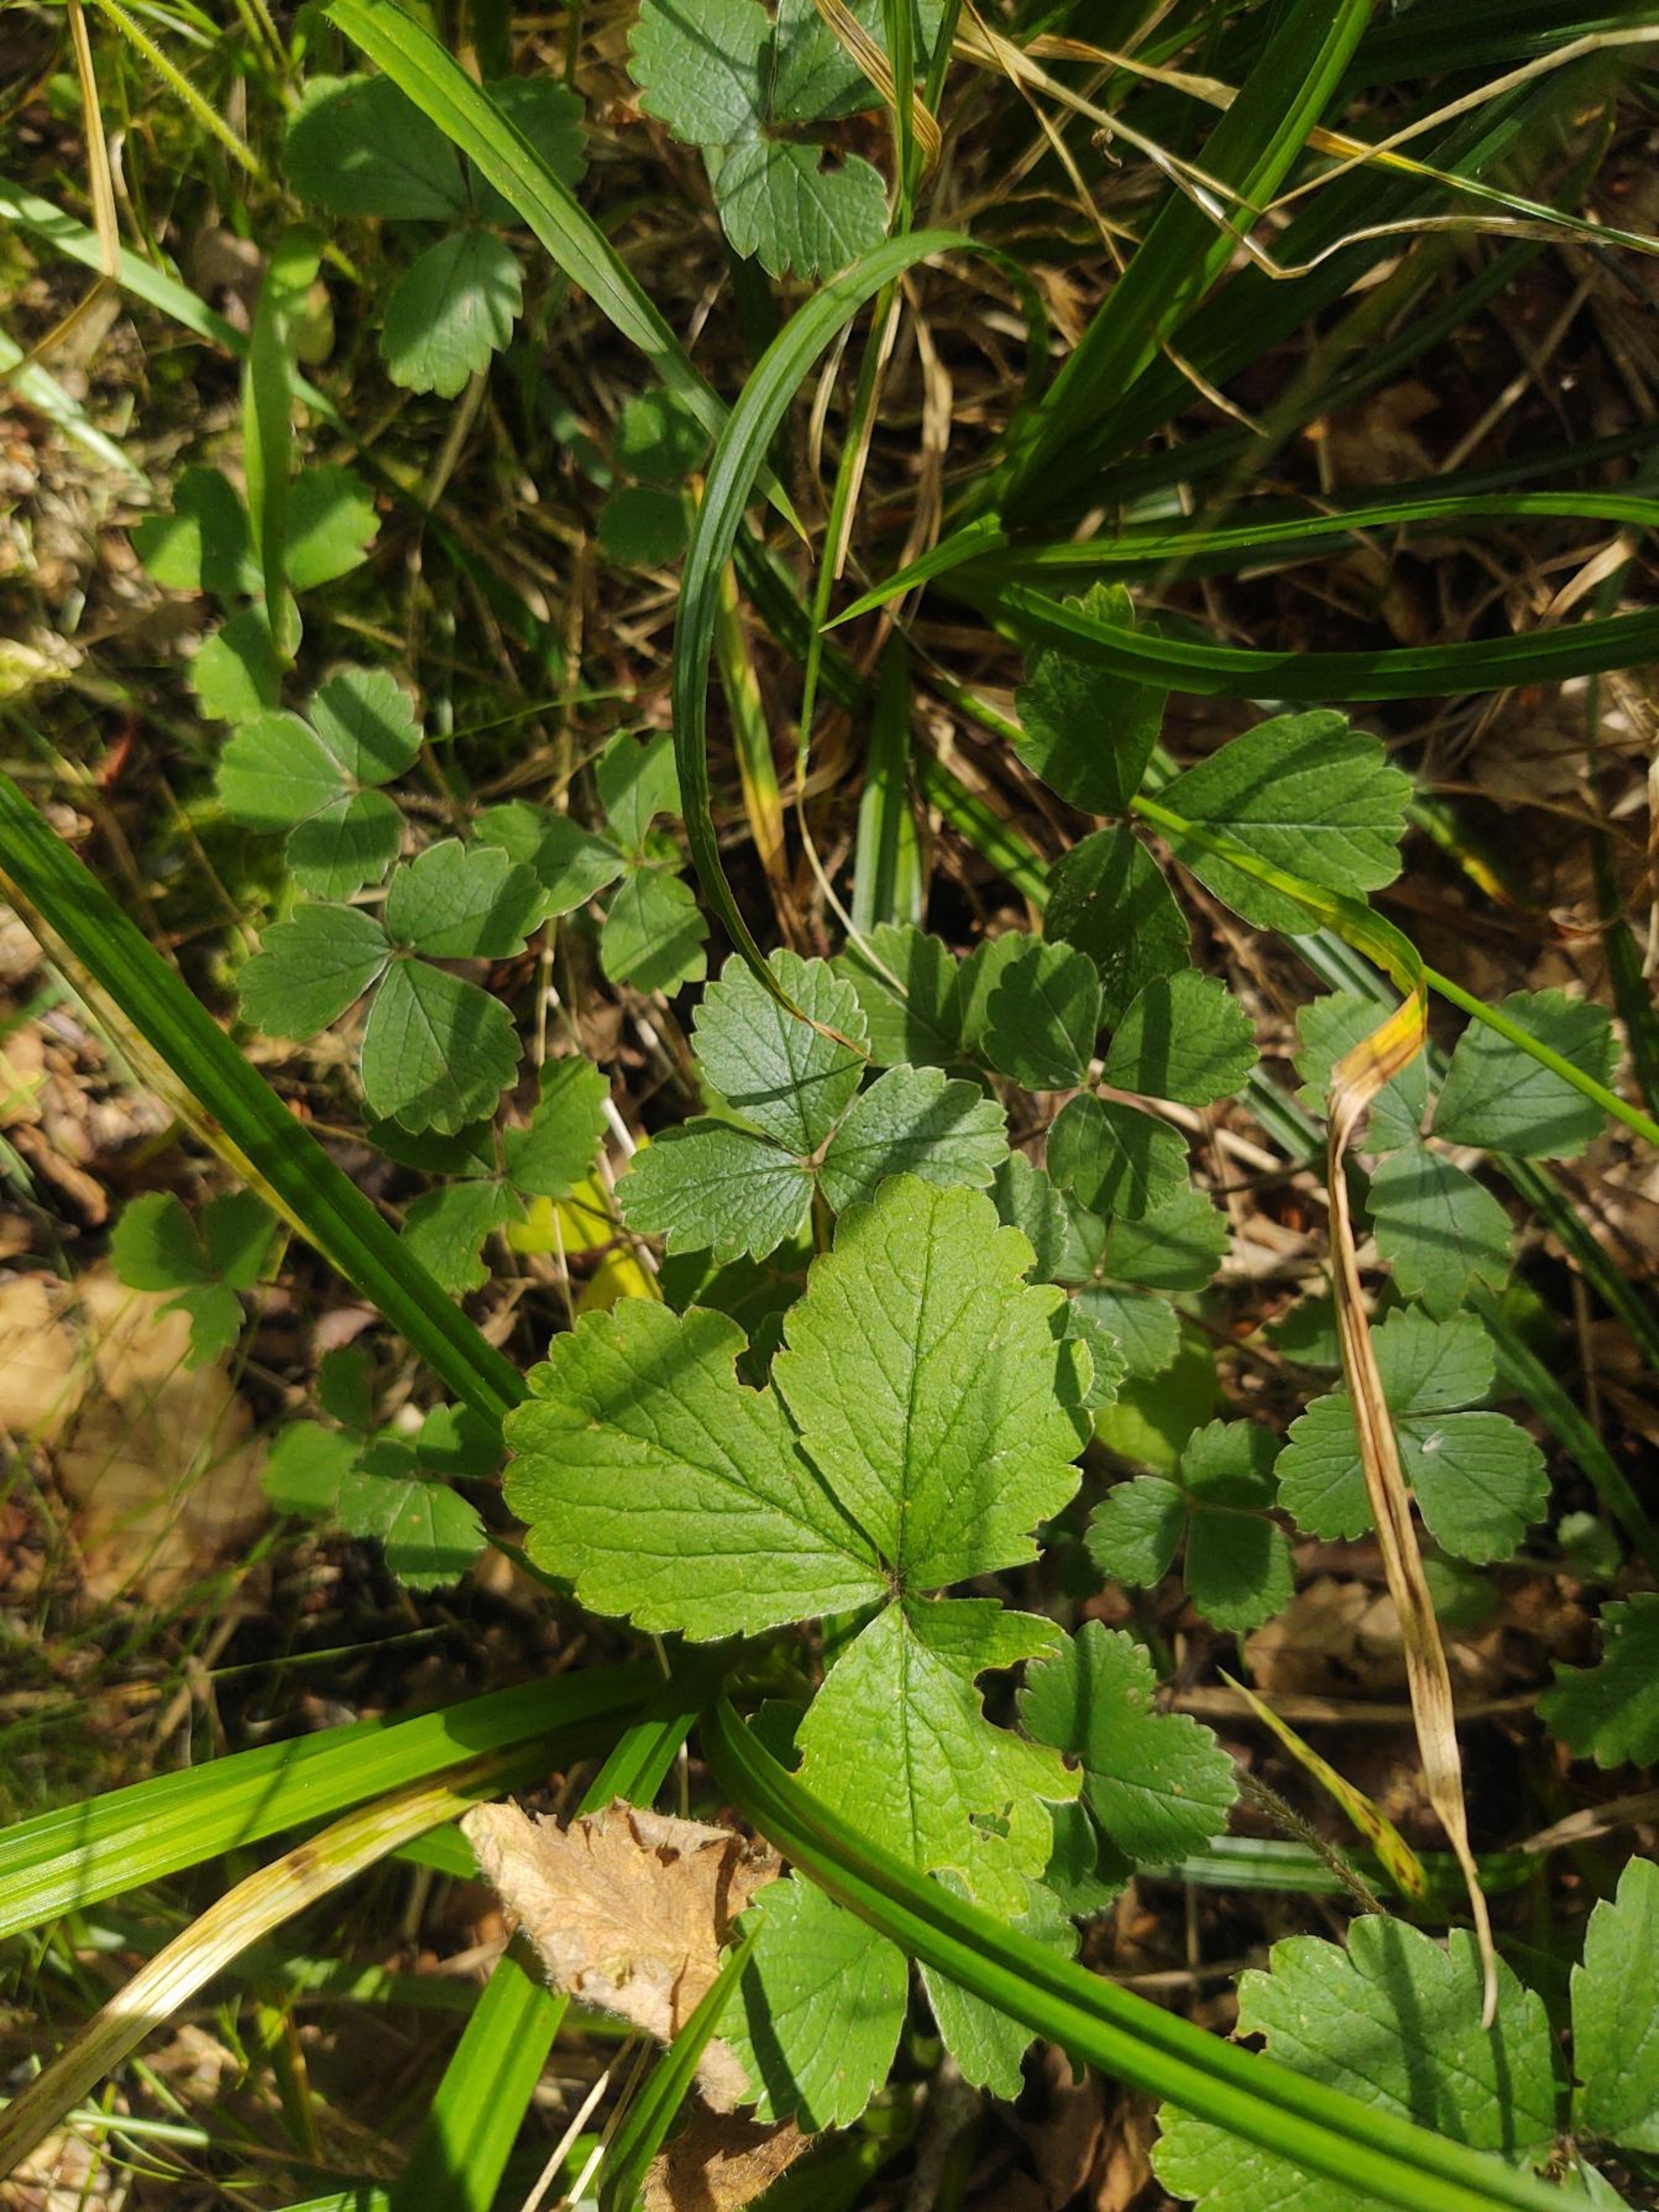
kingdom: Plantae
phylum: Tracheophyta
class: Magnoliopsida
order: Rosales
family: Rosaceae
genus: Potentilla
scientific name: Potentilla sterilis
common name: Jordbær-potentil
